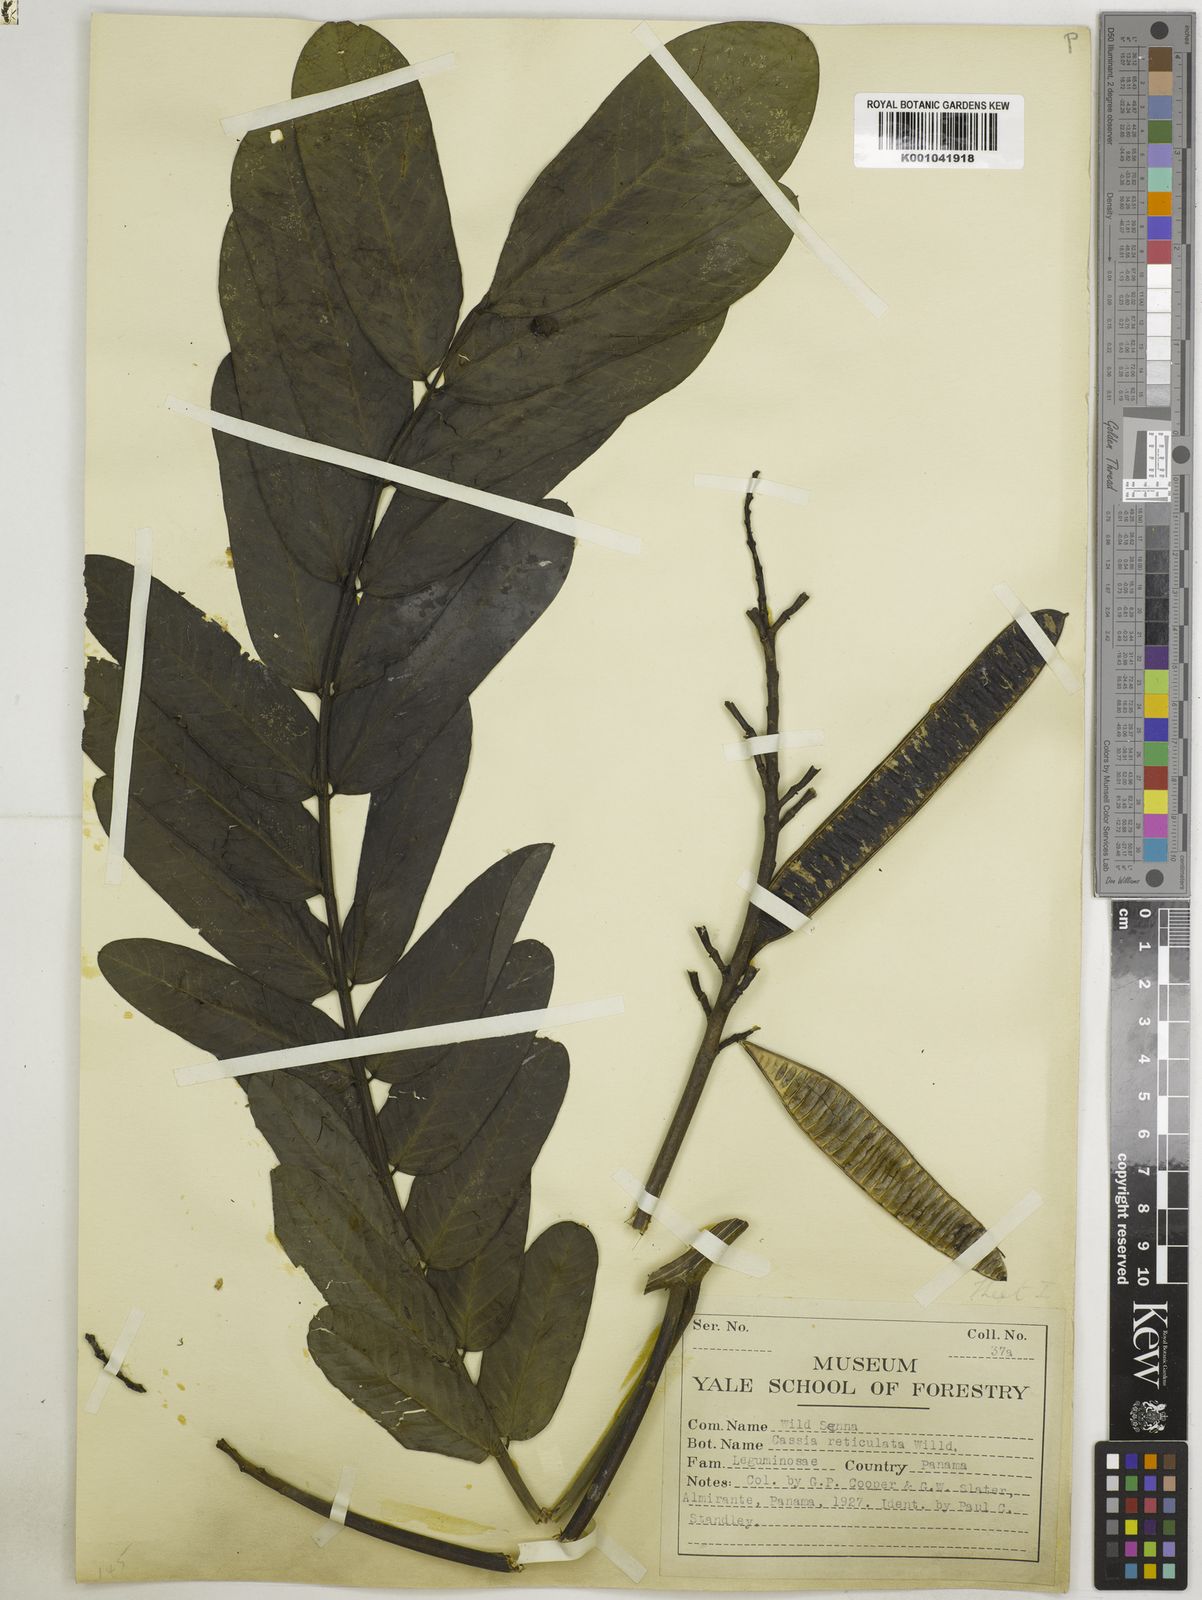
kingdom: Plantae
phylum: Tracheophyta
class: Magnoliopsida
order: Fabales
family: Fabaceae
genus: Senna
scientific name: Senna reticulata
